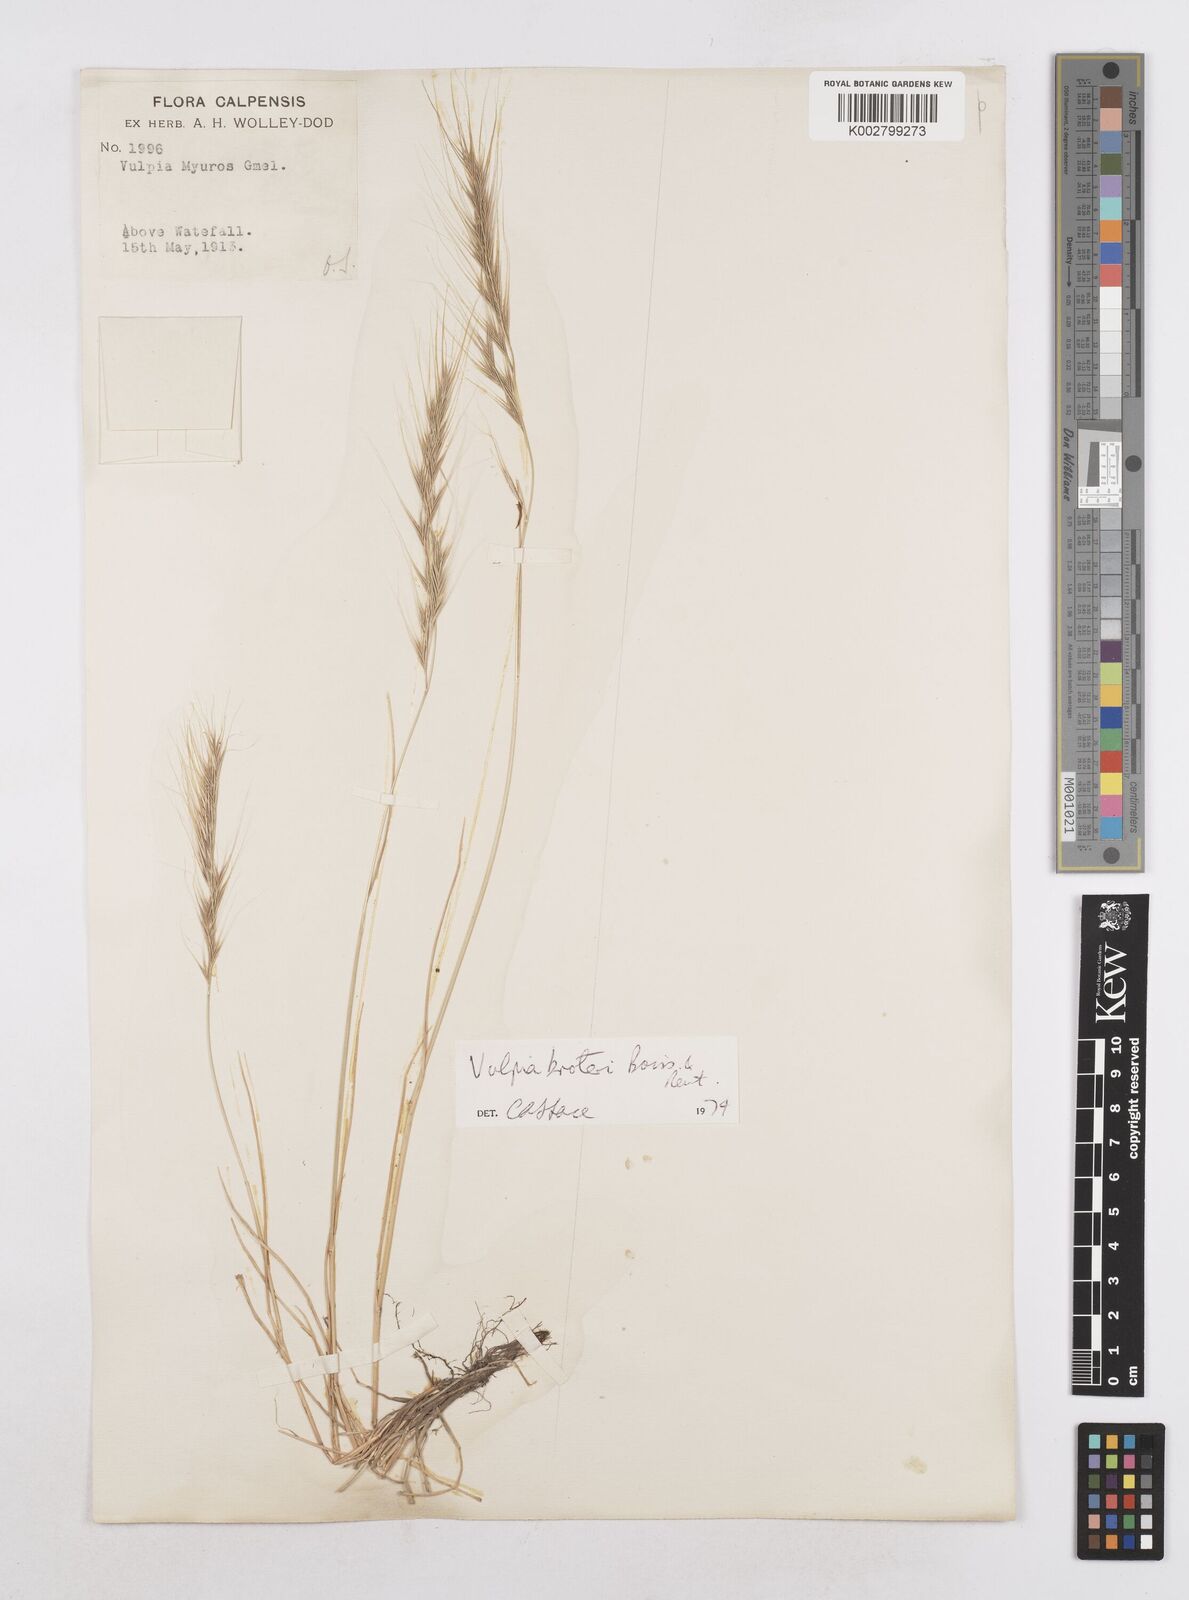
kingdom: Plantae
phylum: Tracheophyta
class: Liliopsida
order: Poales
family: Poaceae
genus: Festuca
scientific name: Festuca muralis
